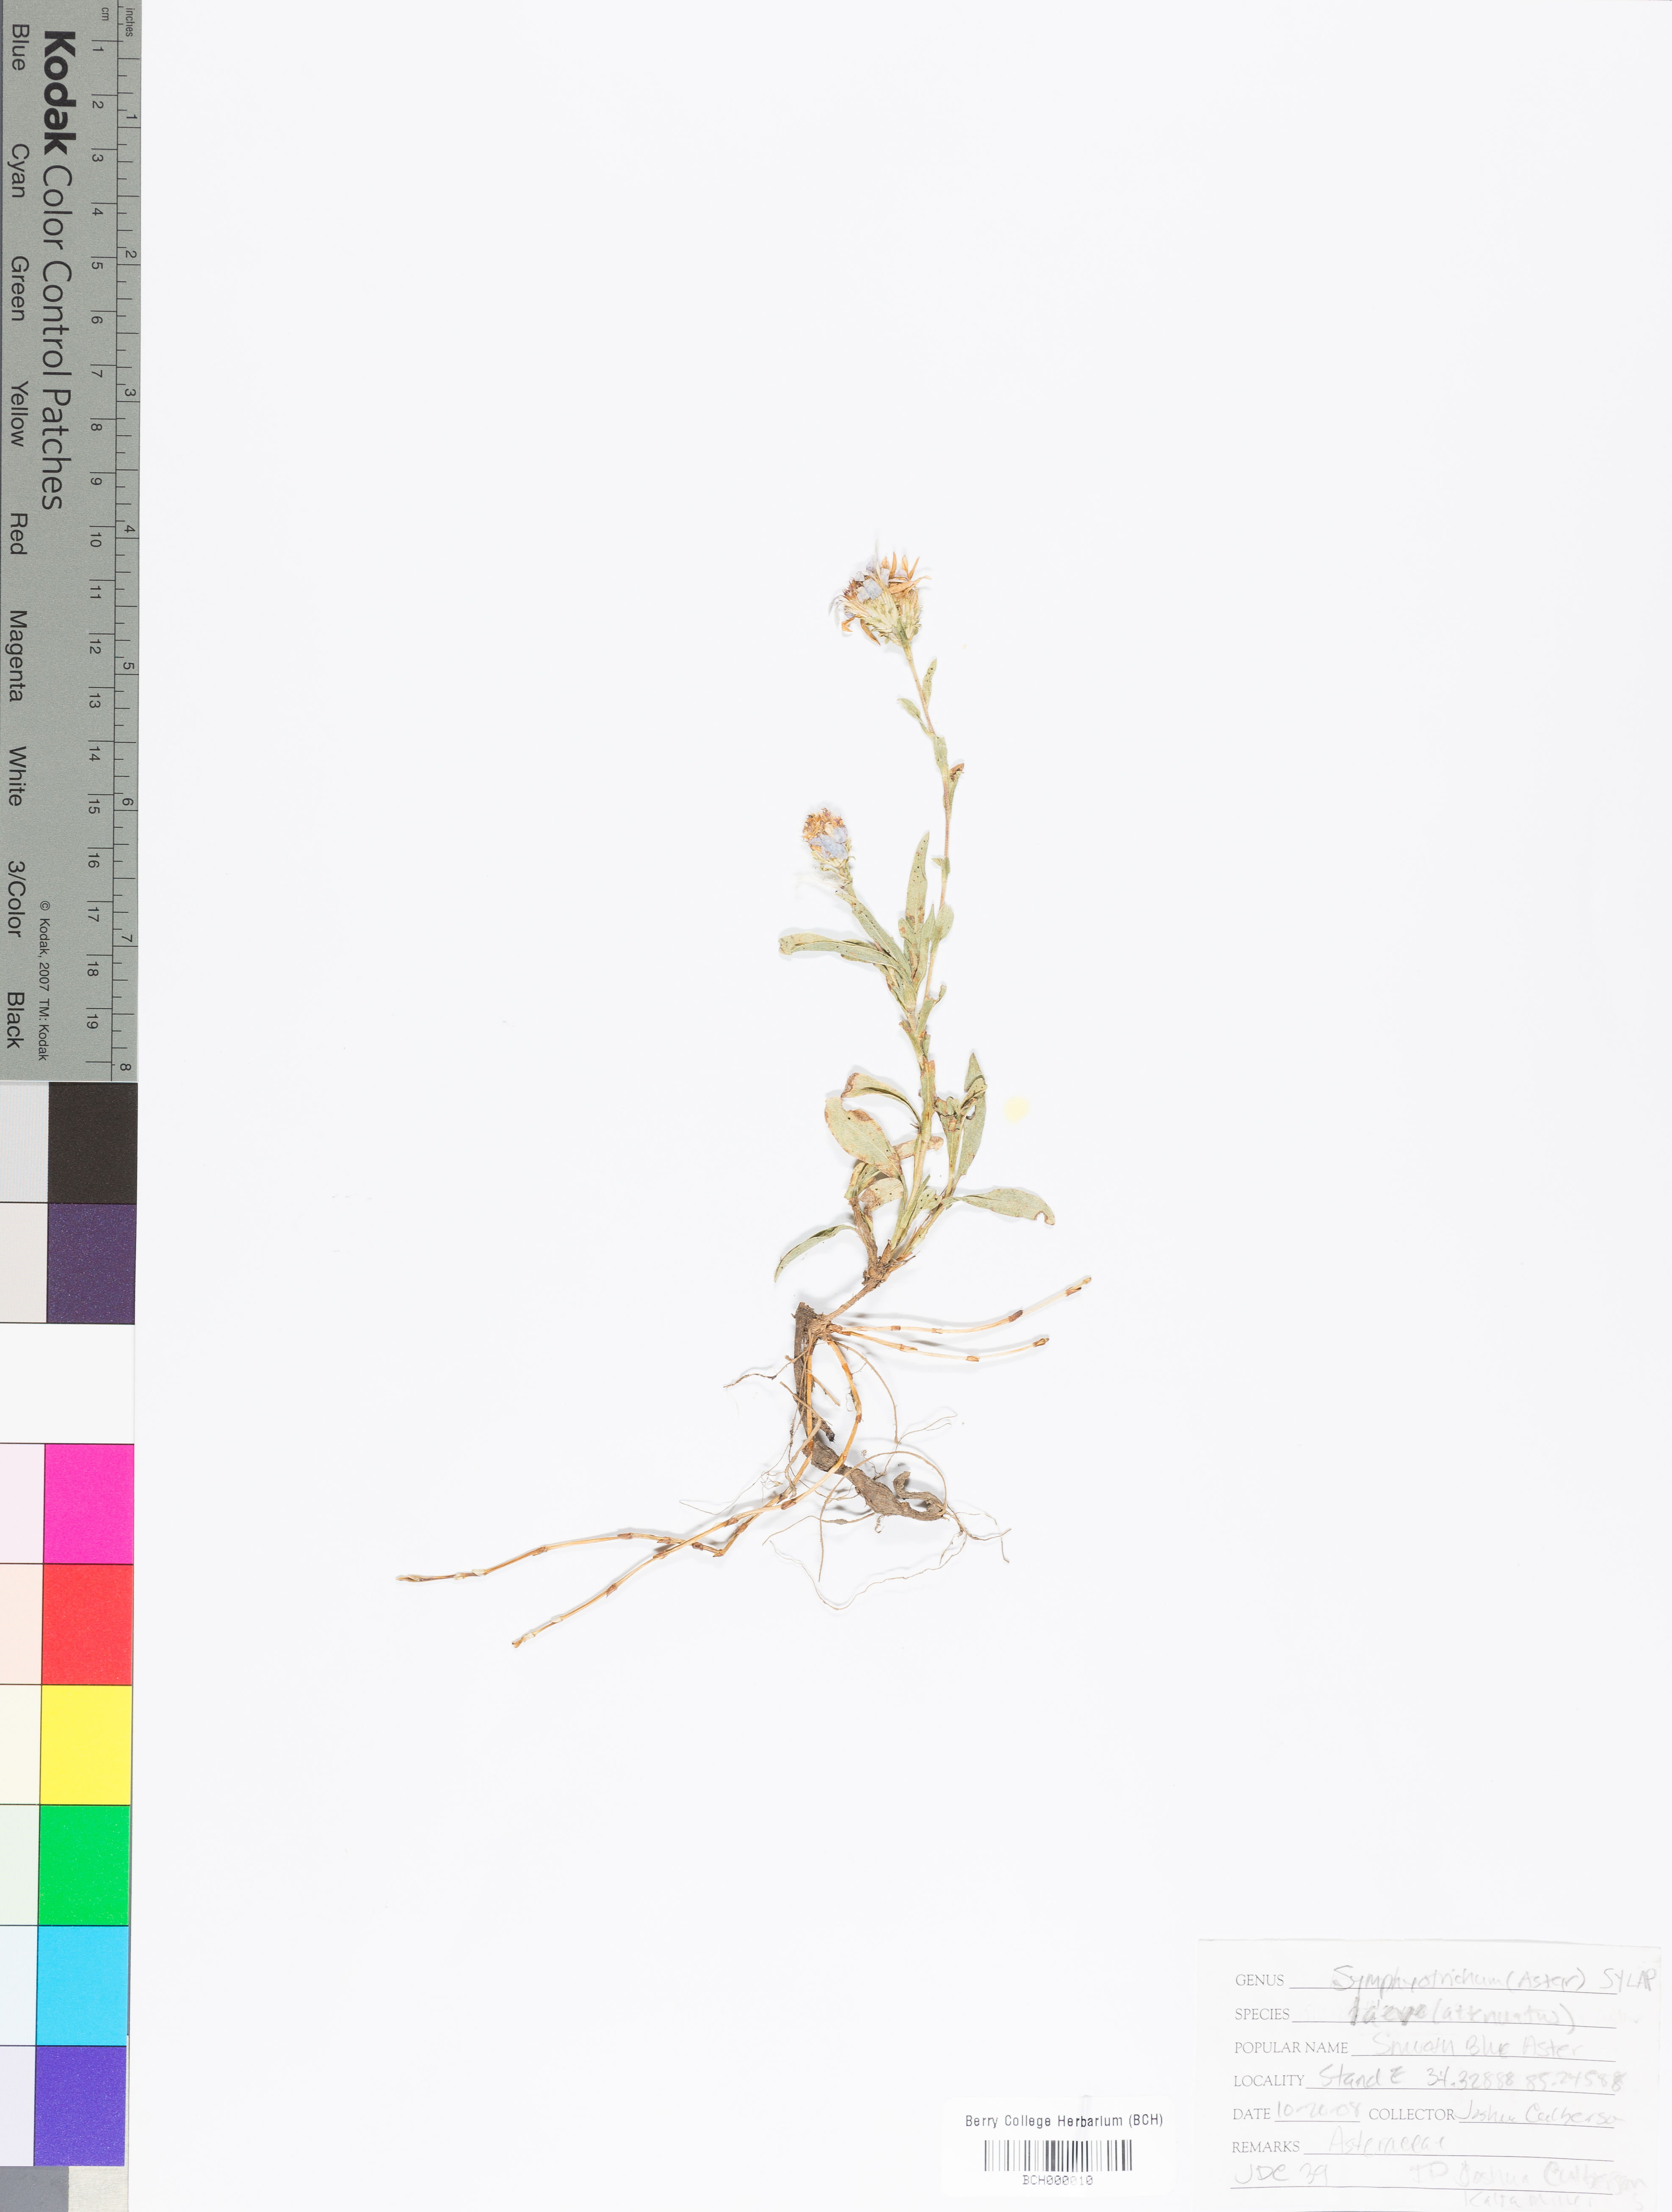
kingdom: Plantae
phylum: Tracheophyta
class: Magnoliopsida
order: Asterales
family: Asteraceae
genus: Symphyotrichum
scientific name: Symphyotrichum laeve
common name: Glaucous aster
